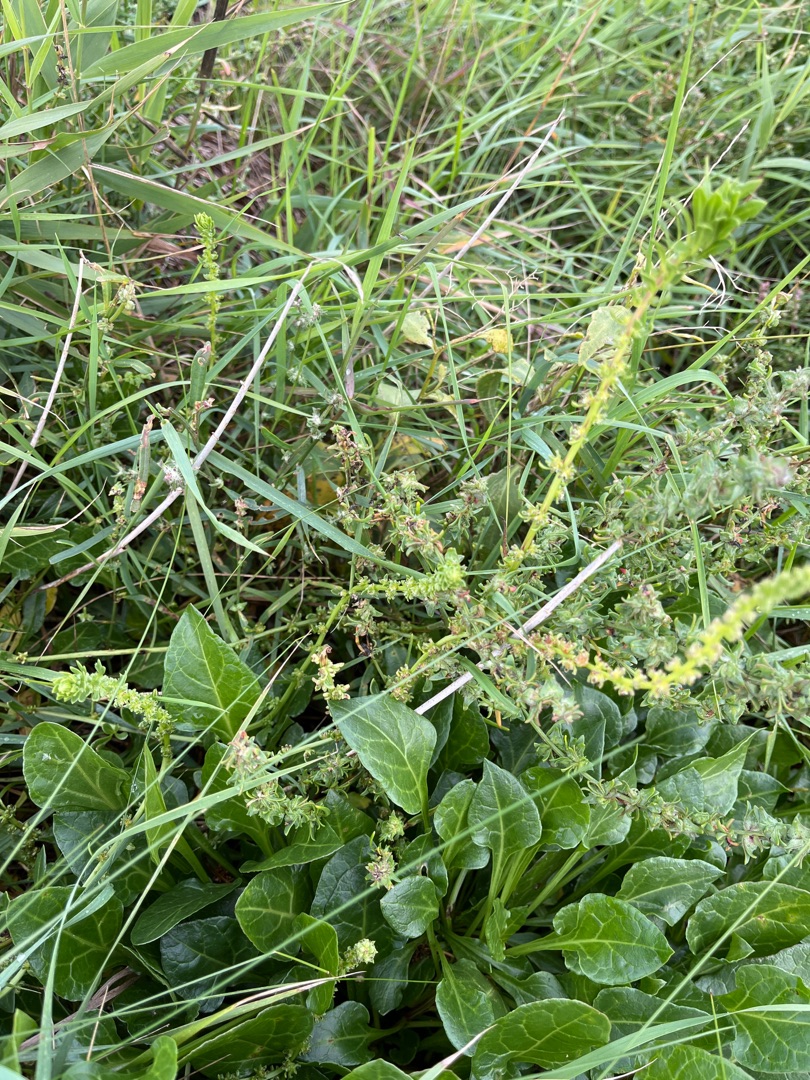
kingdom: Plantae
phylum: Tracheophyta
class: Magnoliopsida
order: Caryophyllales
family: Amaranthaceae
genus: Beta
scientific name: Beta maritima
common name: Strand-bede
